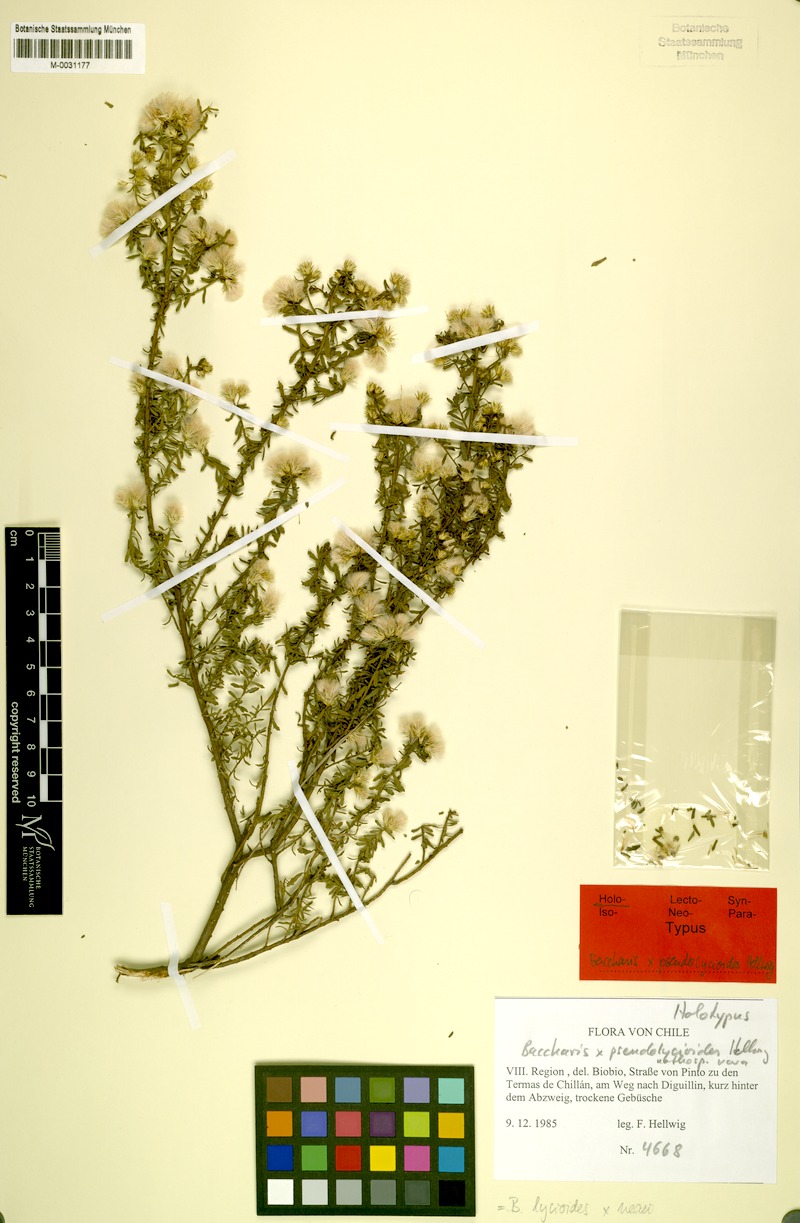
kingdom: Plantae
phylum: Tracheophyta
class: Magnoliopsida
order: Asterales
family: Asteraceae
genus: Baccharis
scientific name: Baccharis pseudolycioides
